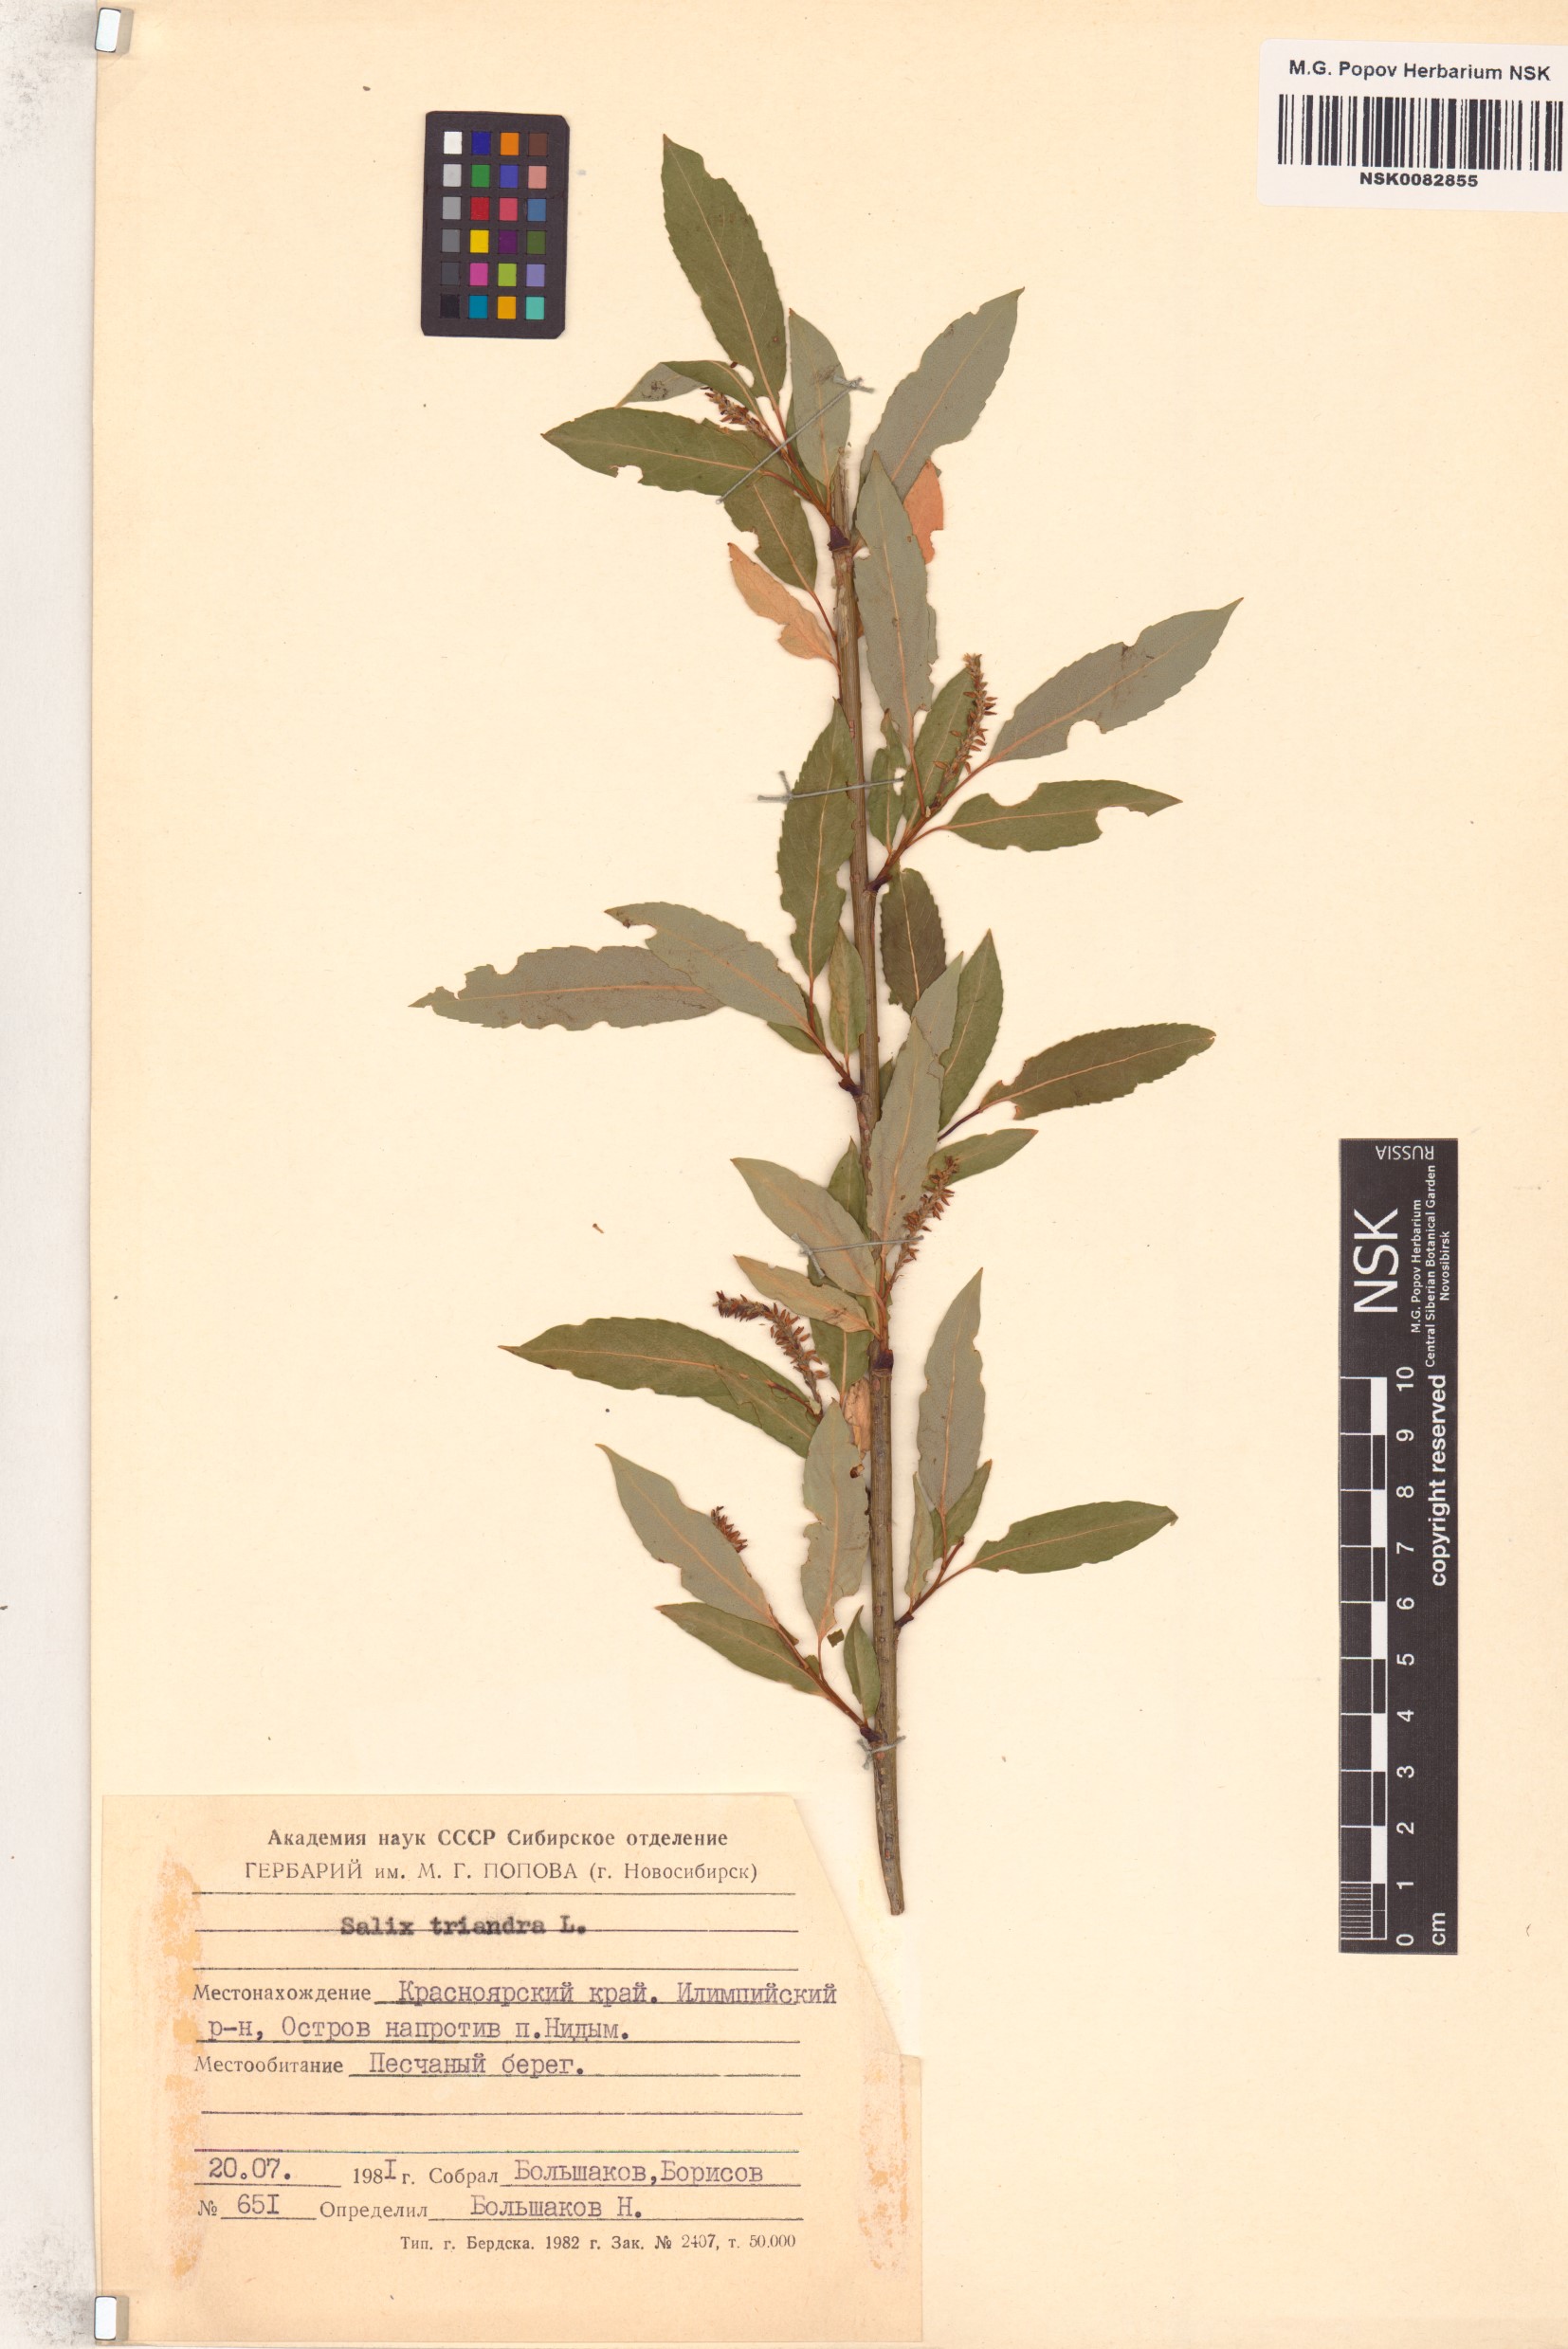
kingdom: Plantae
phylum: Tracheophyta
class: Magnoliopsida
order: Malpighiales
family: Salicaceae
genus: Salix
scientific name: Salix triandra
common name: Almond willow
